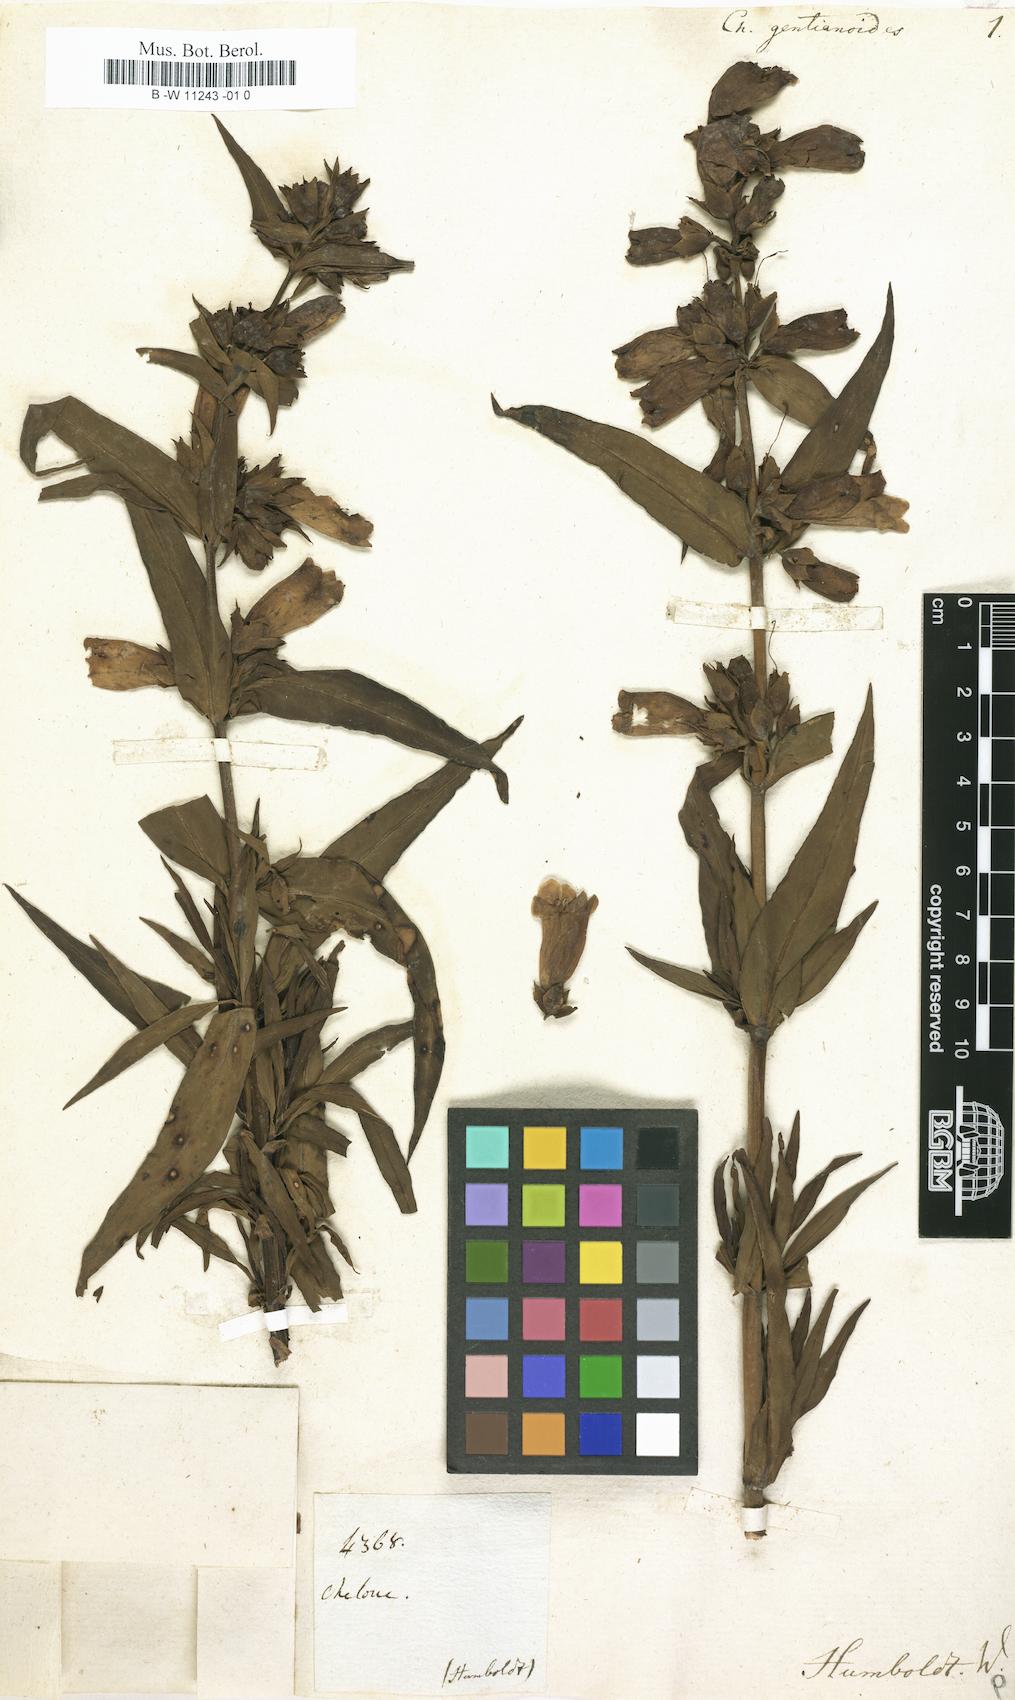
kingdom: Plantae
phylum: Tracheophyta
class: Magnoliopsida
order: Lamiales
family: Plantaginaceae
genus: Penstemon
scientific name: Penstemon gentianoides
